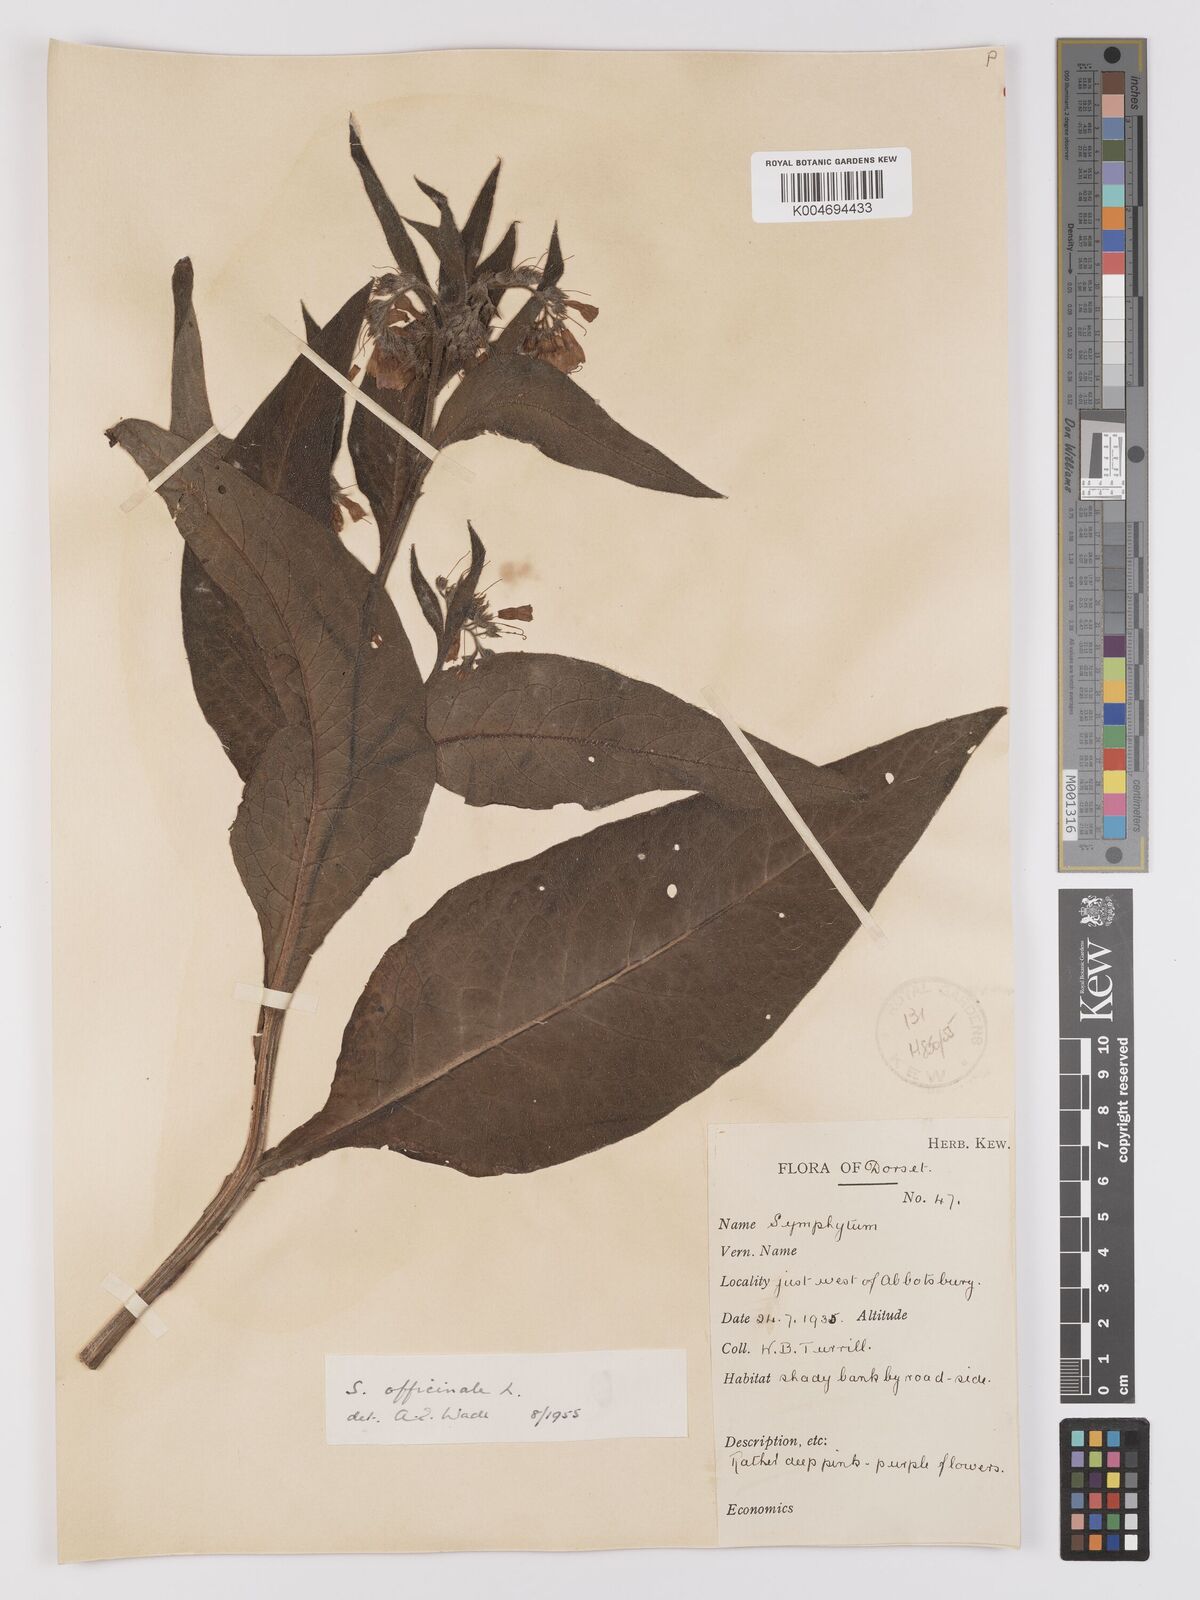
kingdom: Plantae
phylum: Tracheophyta
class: Magnoliopsida
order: Boraginales
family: Boraginaceae
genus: Symphytum
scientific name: Symphytum officinale
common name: Common comfrey
